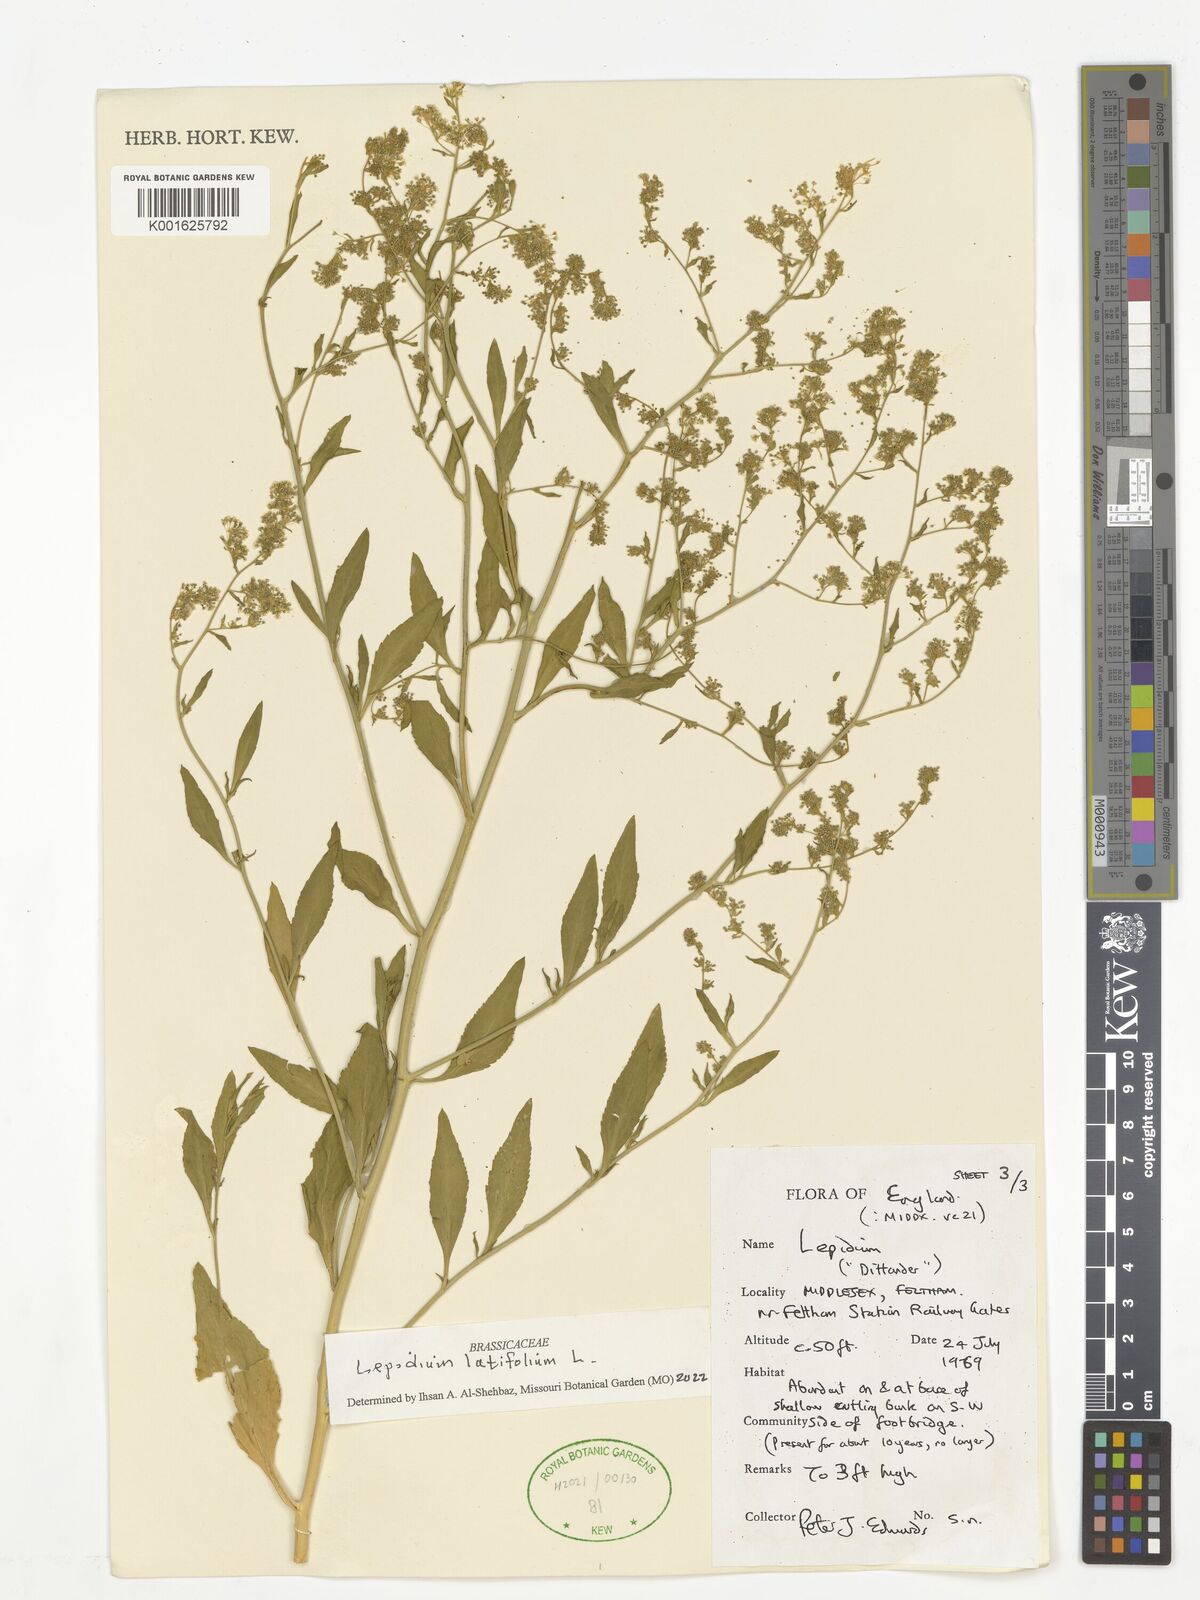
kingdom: Plantae
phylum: Tracheophyta
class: Magnoliopsida
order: Brassicales
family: Brassicaceae
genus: Lepidium
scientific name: Lepidium latifolium
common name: Dittander
